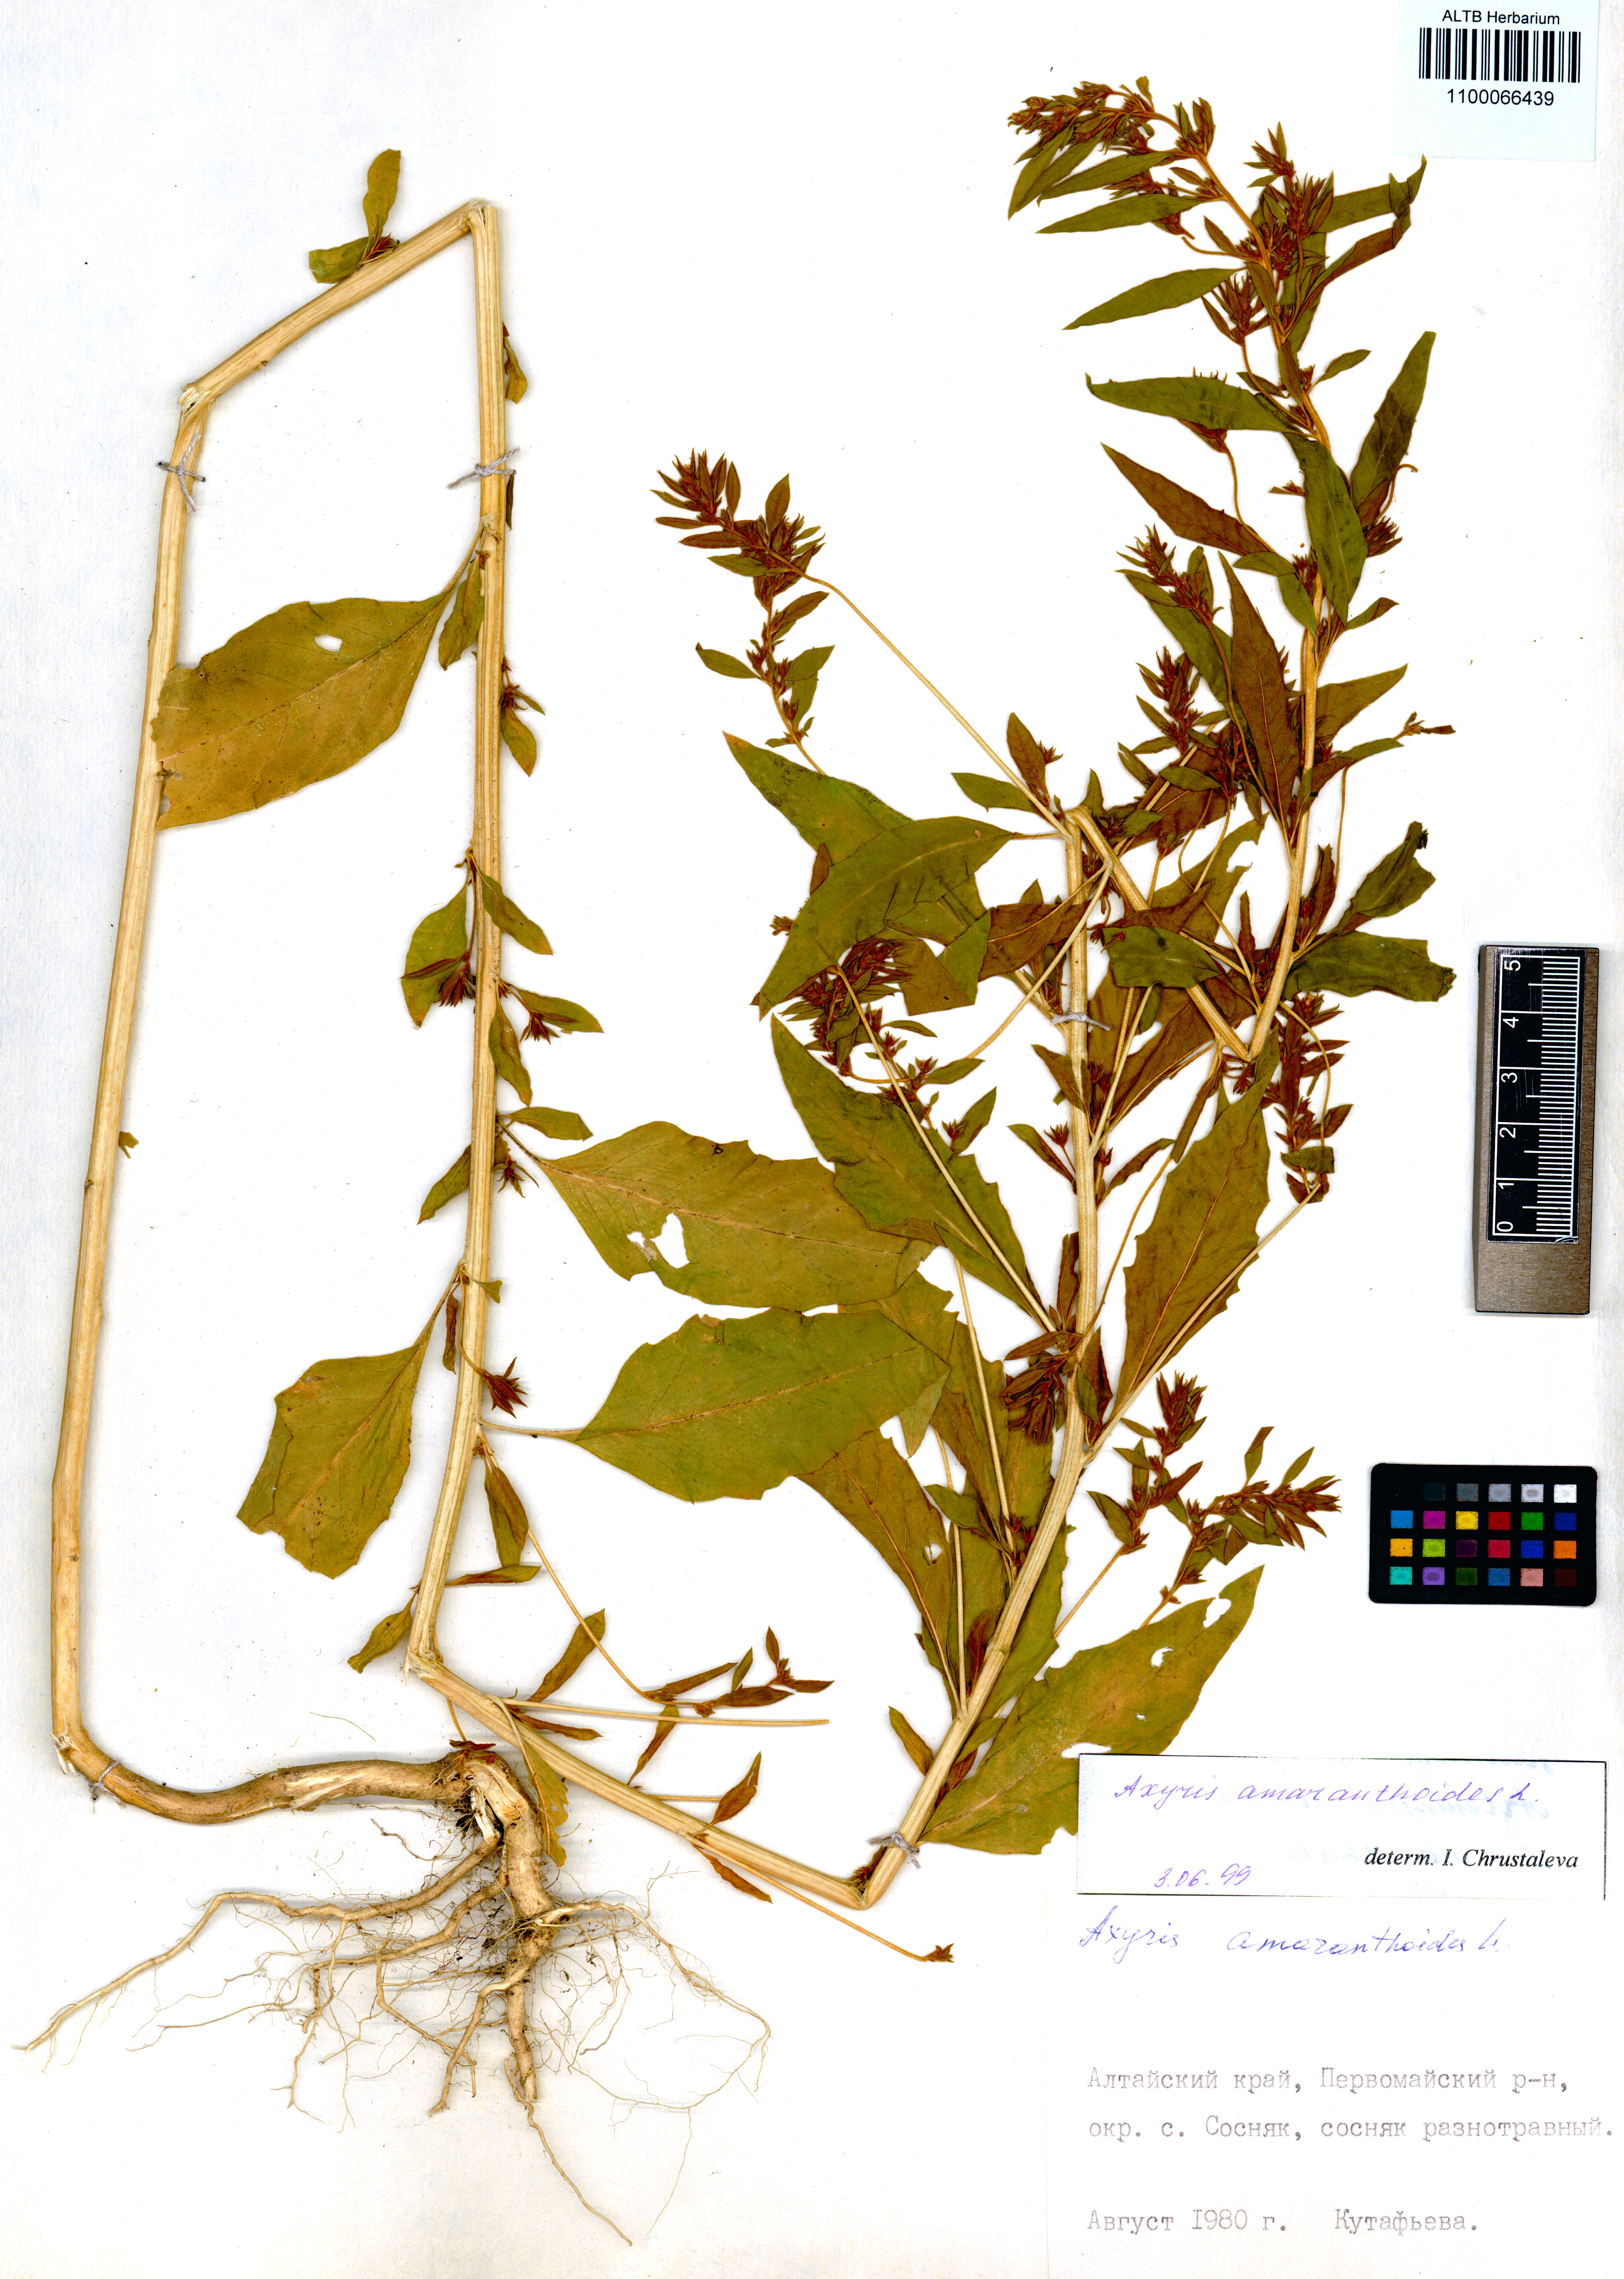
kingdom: Plantae
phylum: Tracheophyta
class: Magnoliopsida
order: Caryophyllales
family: Amaranthaceae
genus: Axyris
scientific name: Axyris amaranthoides
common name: Russian pigweed
